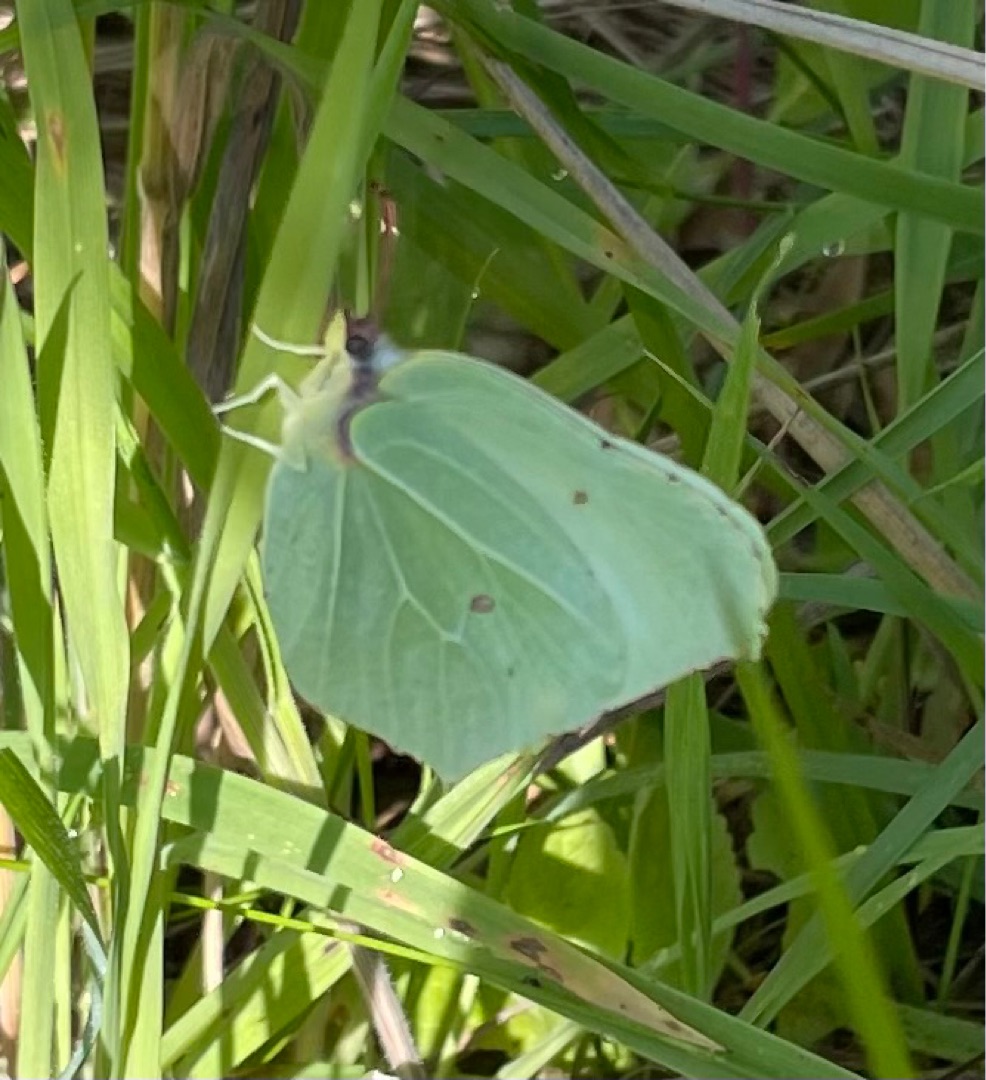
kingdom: Animalia
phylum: Arthropoda
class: Insecta
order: Lepidoptera
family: Pieridae
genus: Gonepteryx
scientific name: Gonepteryx rhamni
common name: Citronsommerfugl
